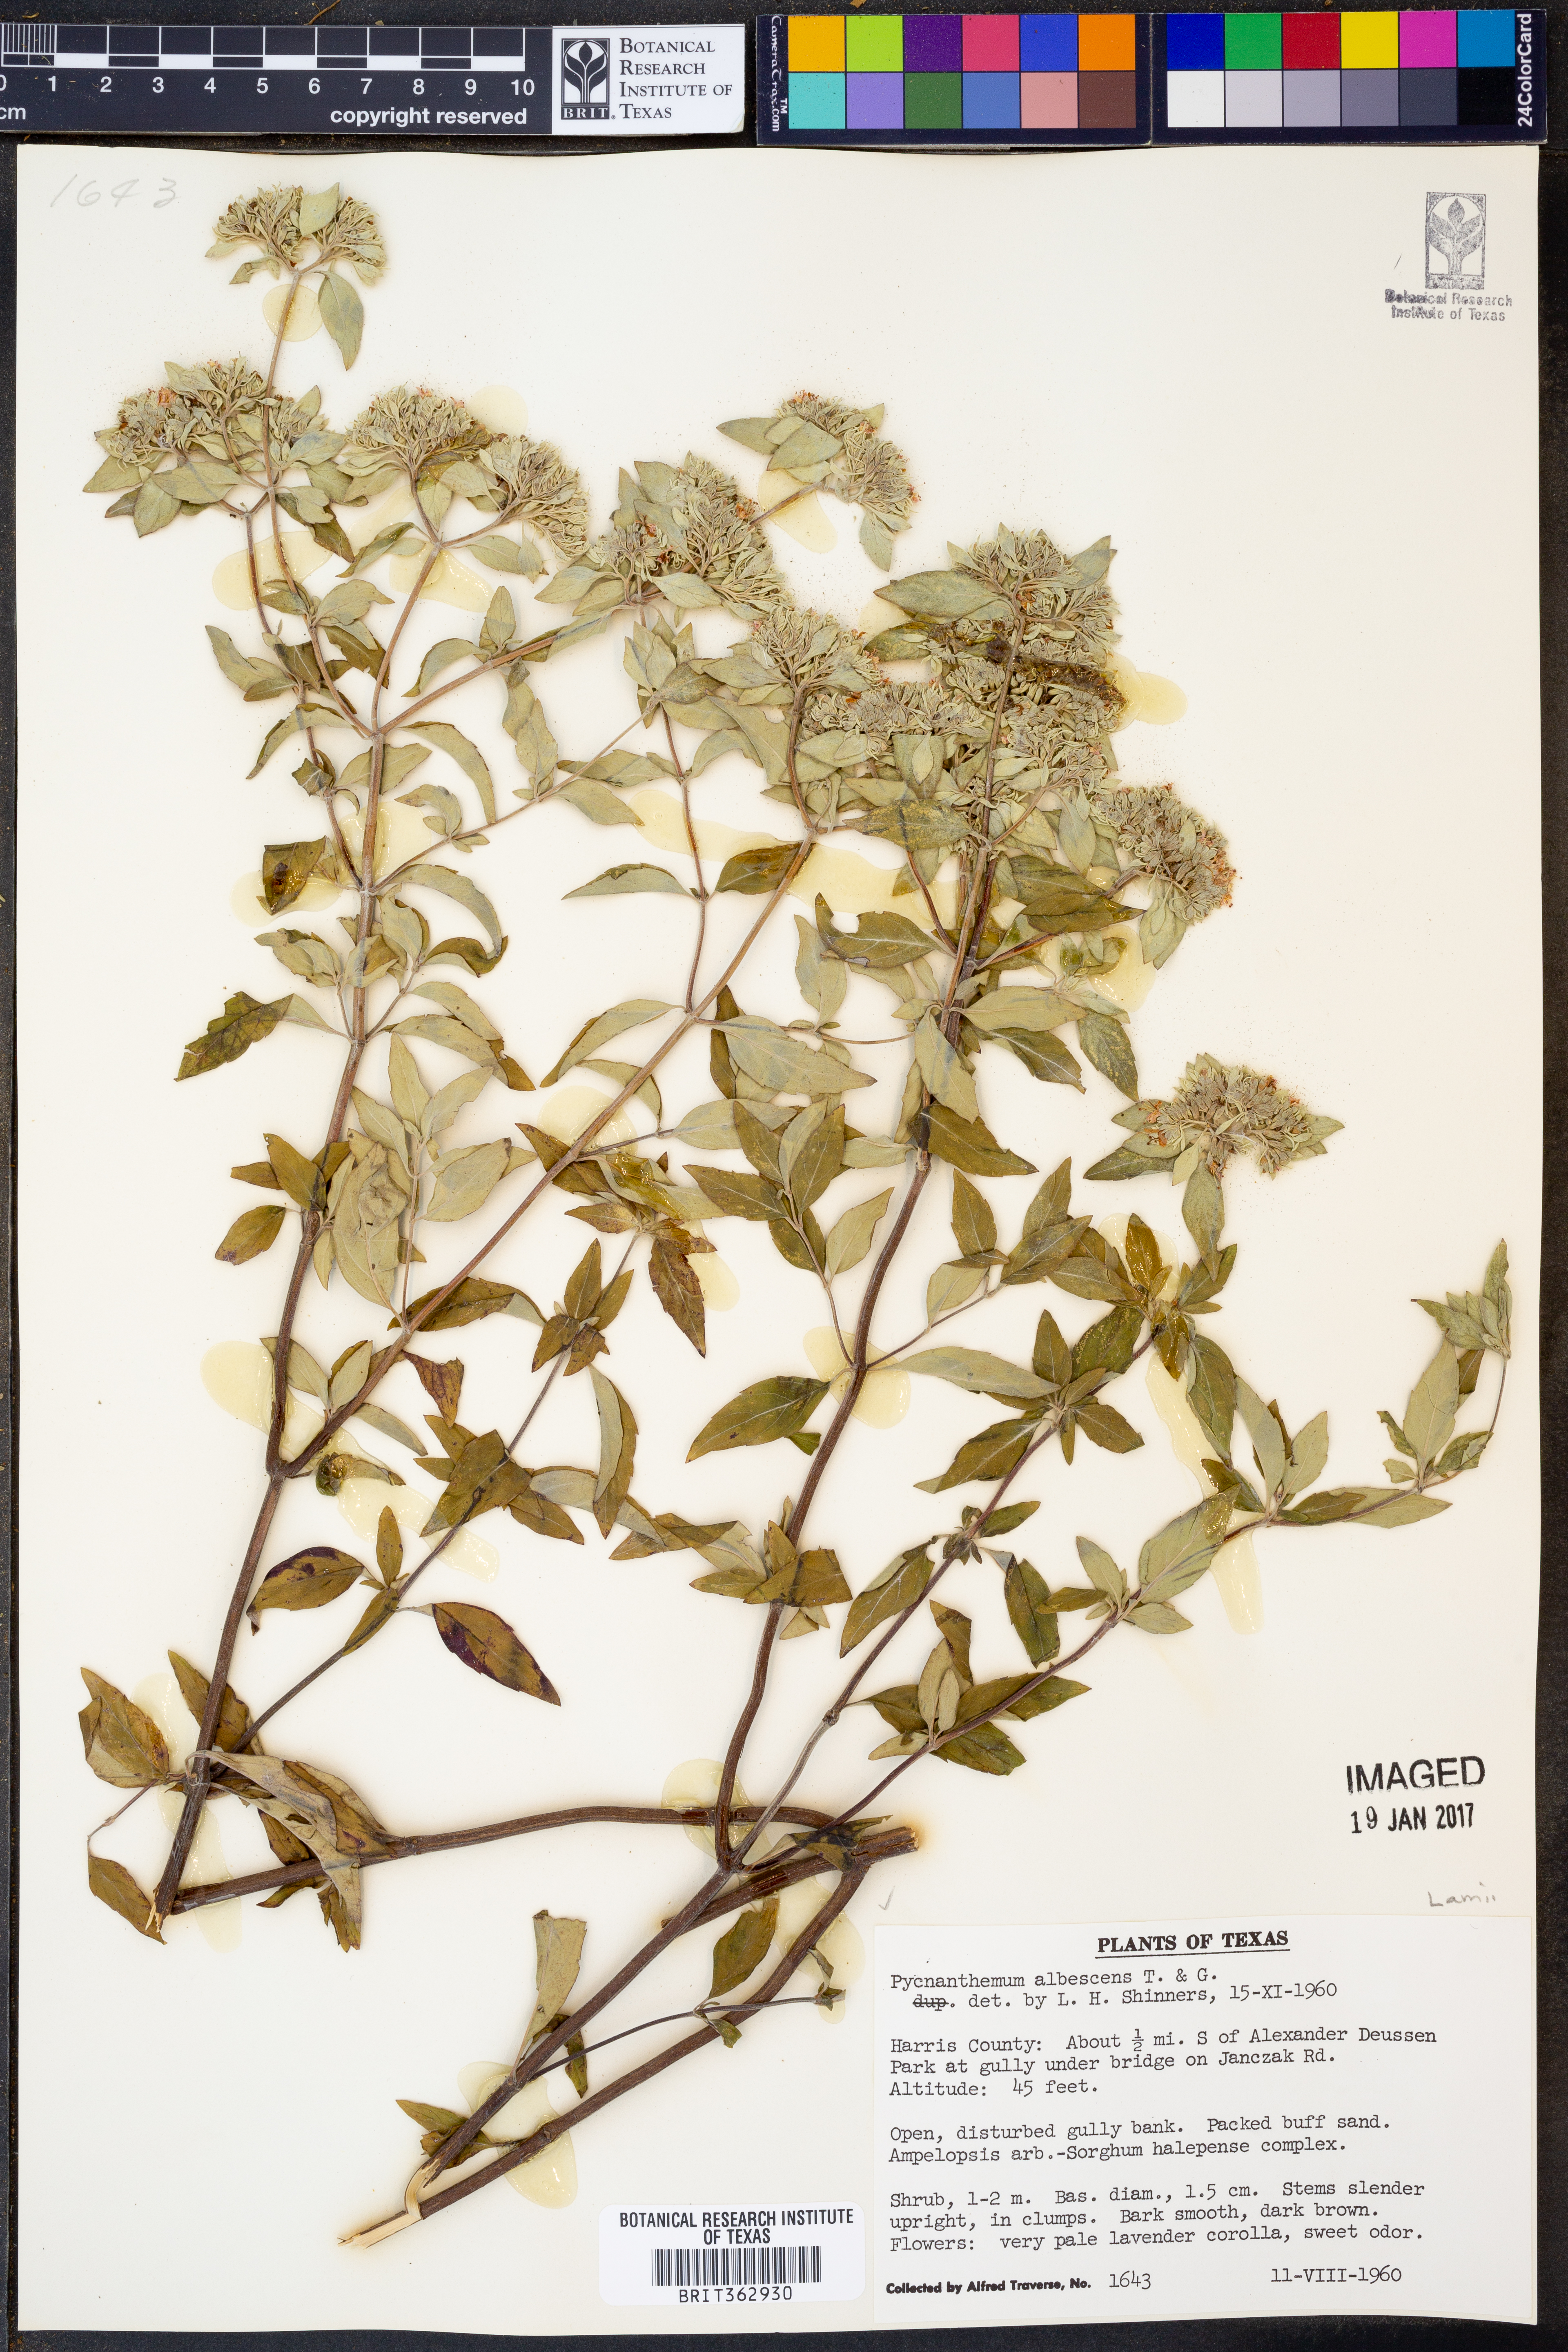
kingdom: Plantae
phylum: Tracheophyta
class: Magnoliopsida
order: Lamiales
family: Lamiaceae
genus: Pycnanthemum
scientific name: Pycnanthemum albescens
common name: White-leaf mountain-mint
